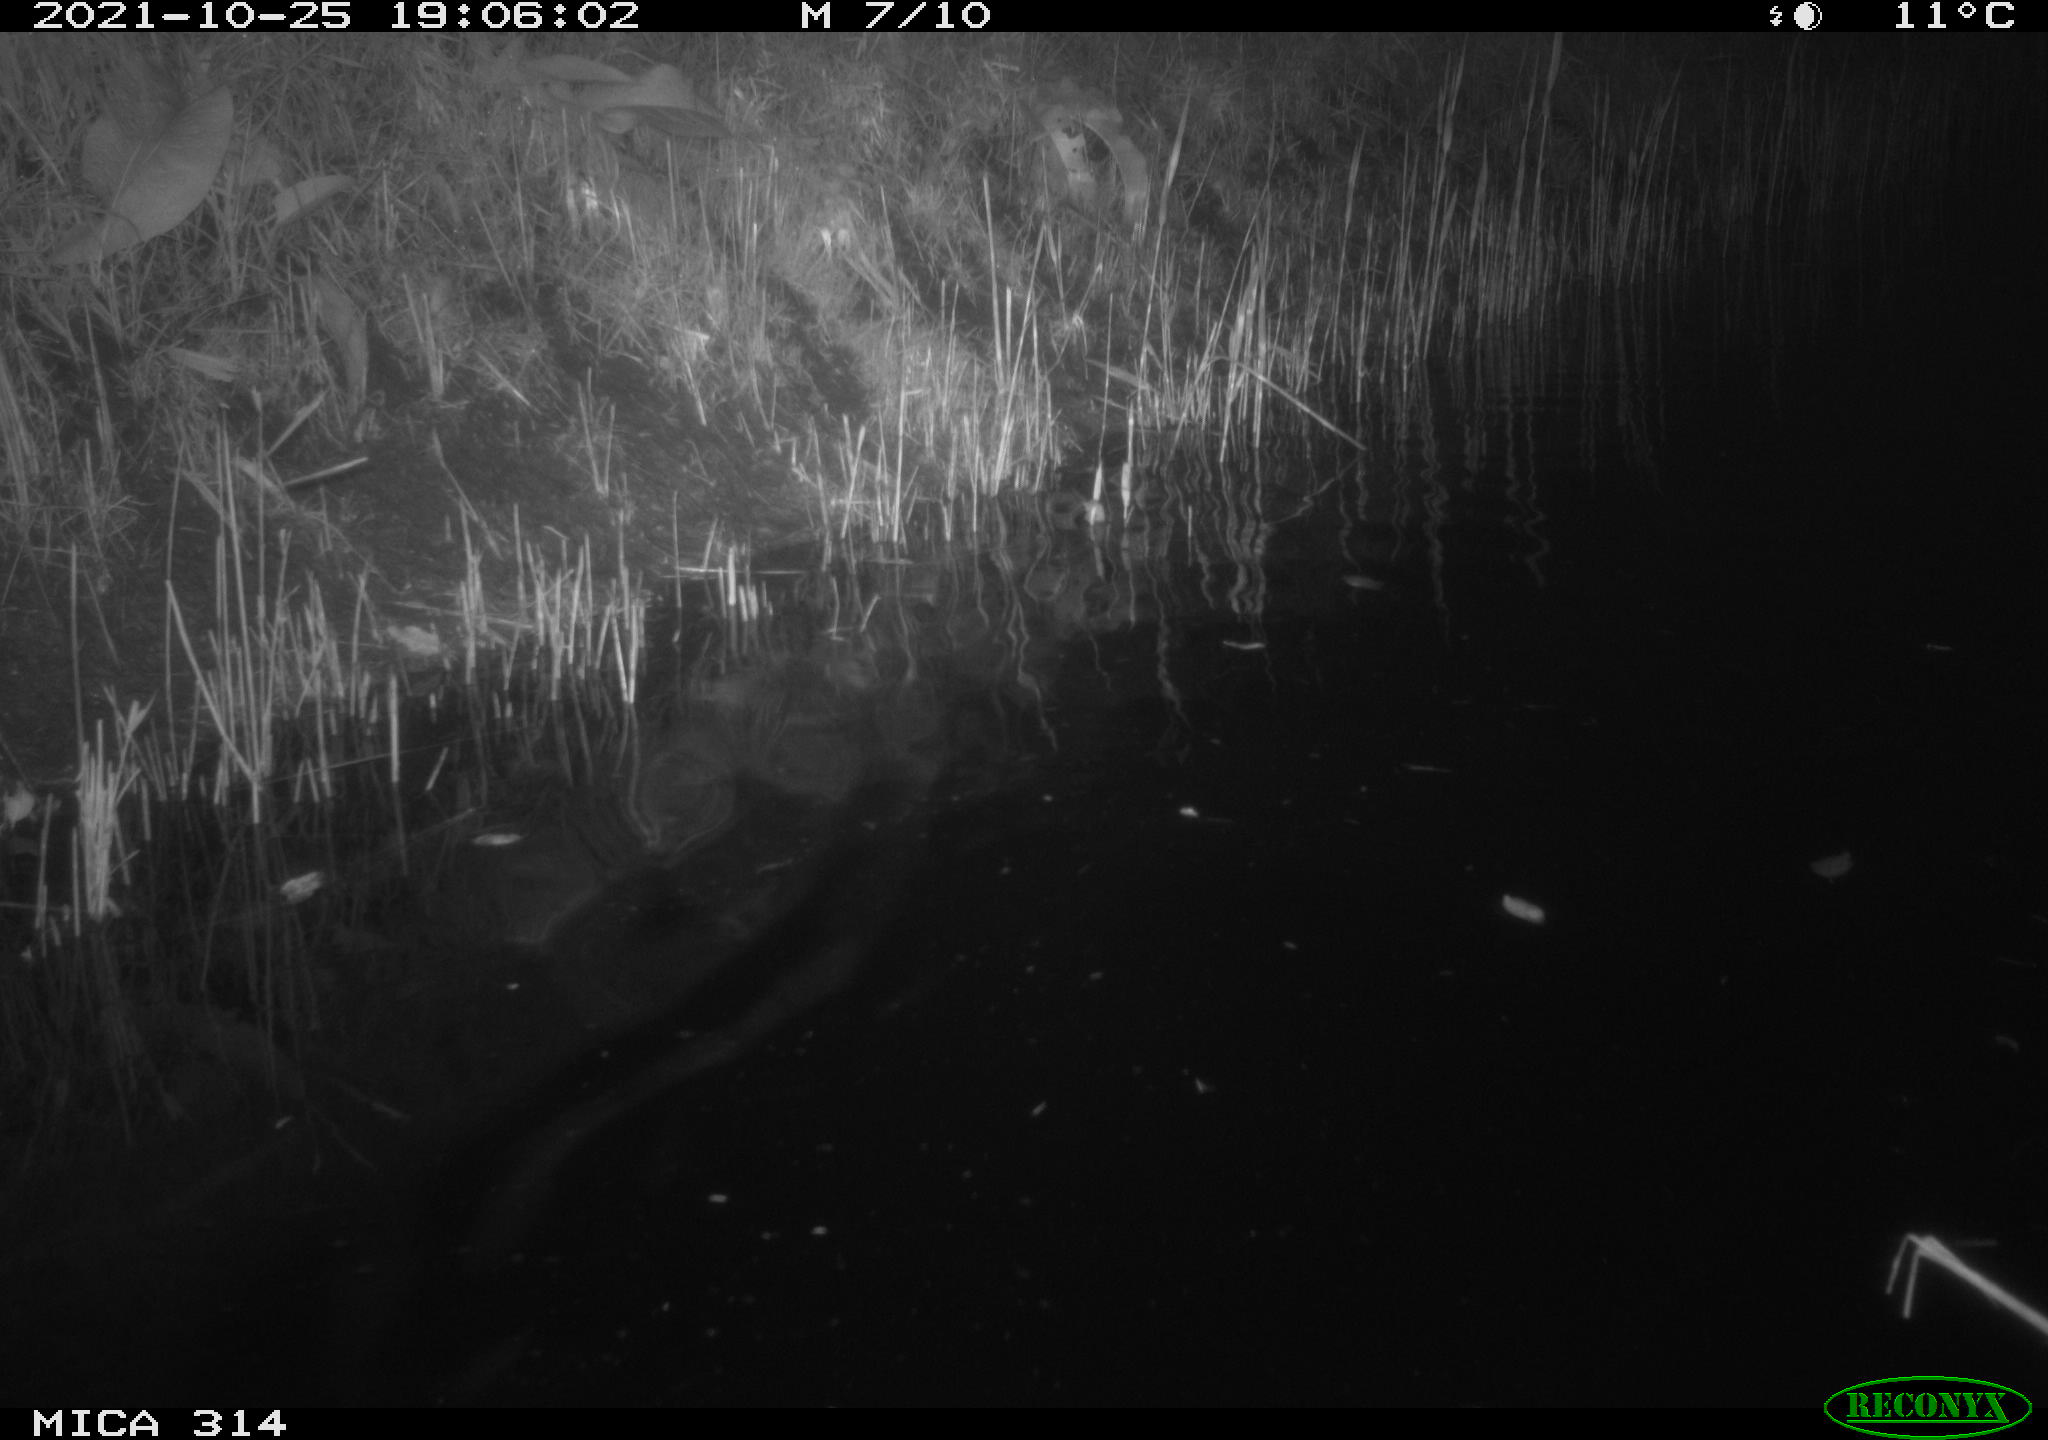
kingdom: Animalia
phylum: Chordata
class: Aves
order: Anseriformes
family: Anatidae
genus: Anas
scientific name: Anas
